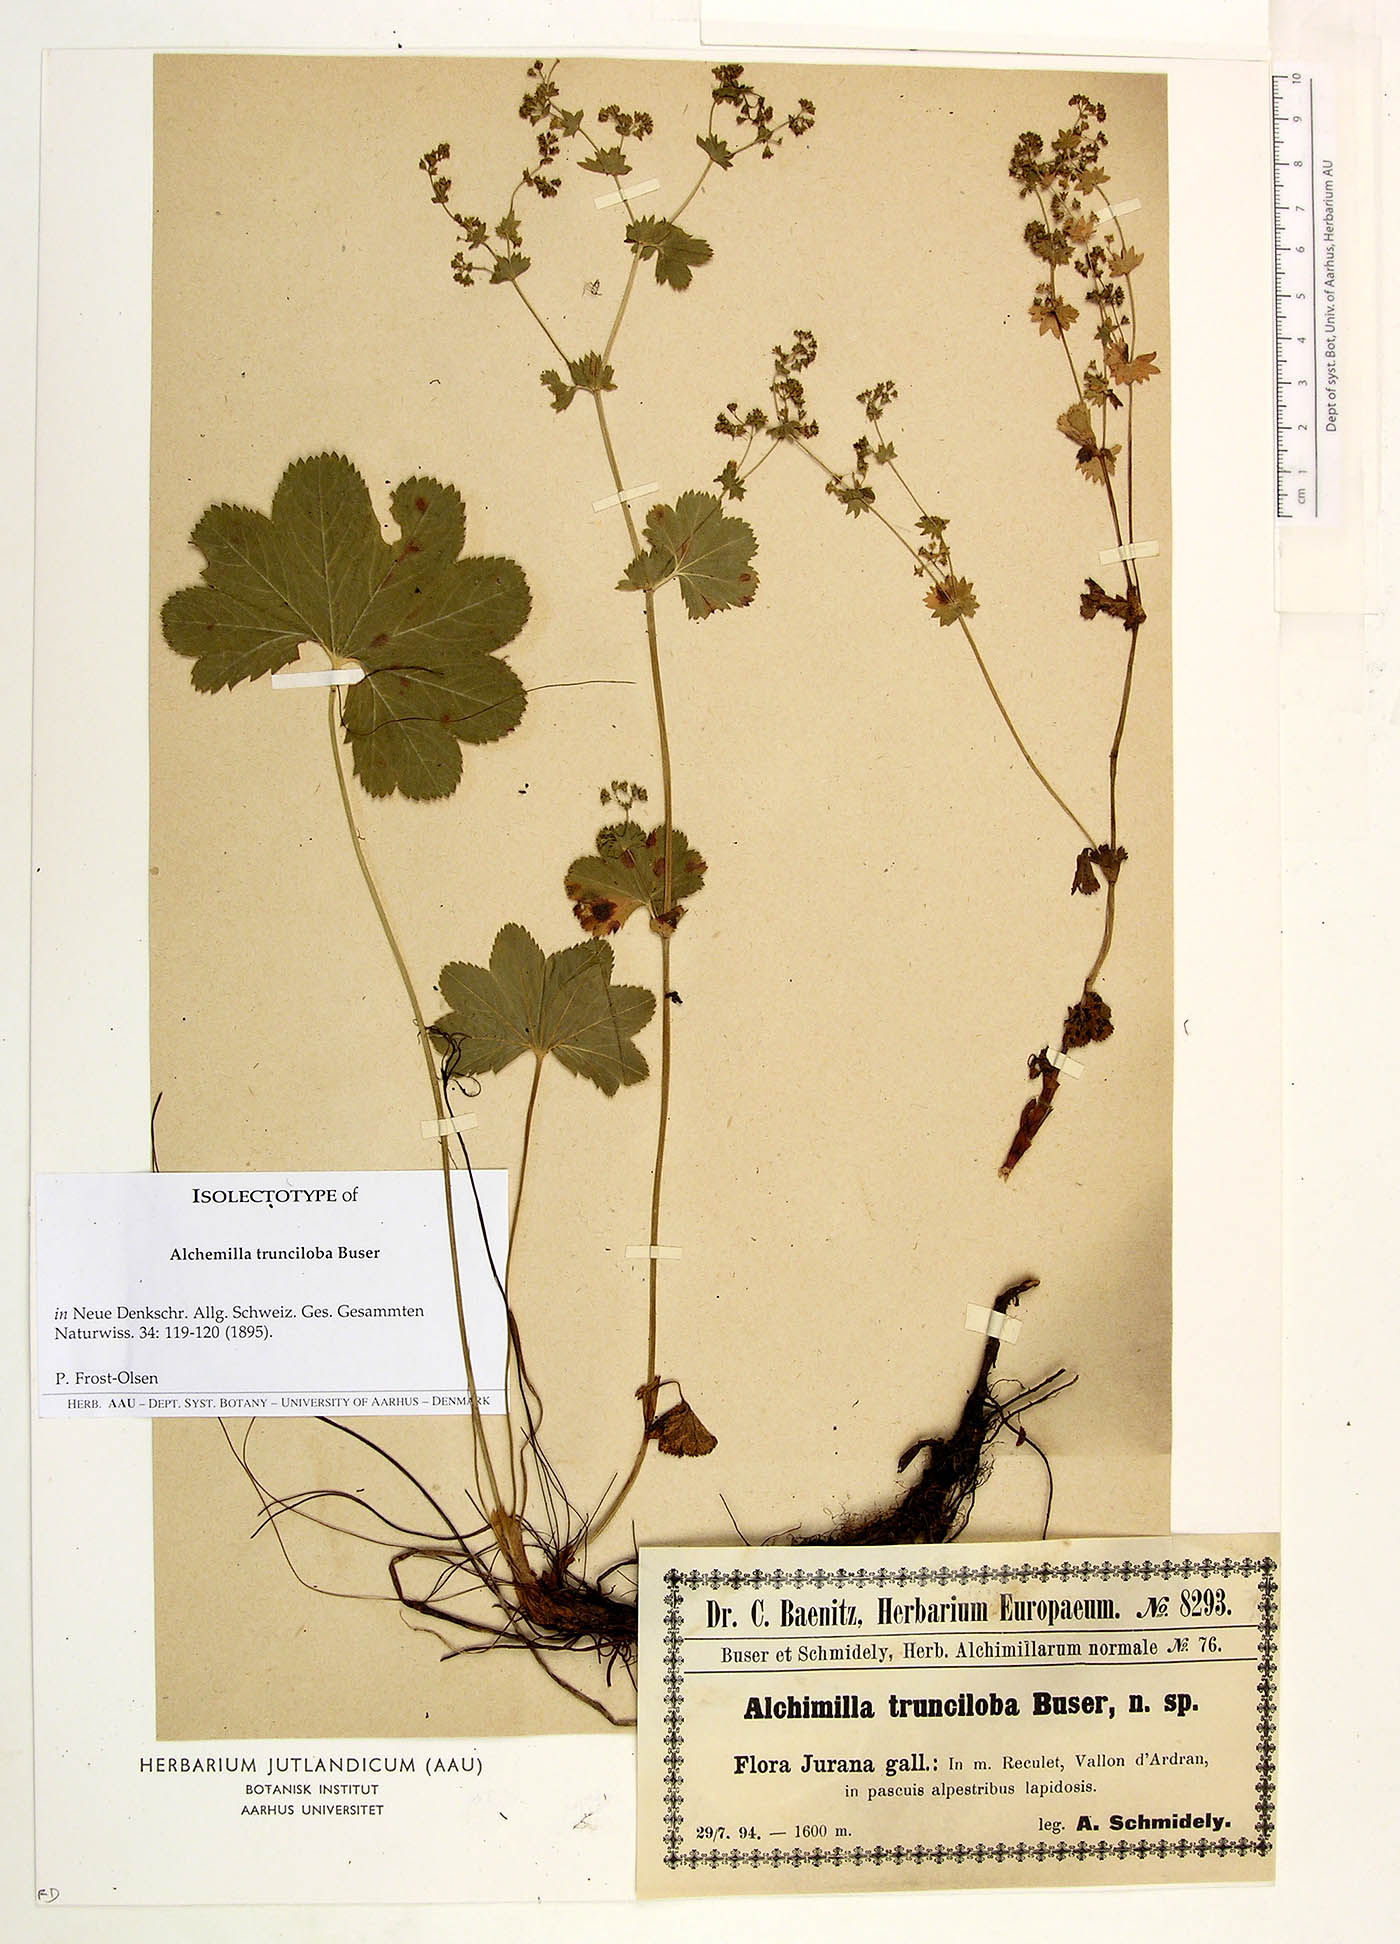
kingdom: Plantae
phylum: Tracheophyta
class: Magnoliopsida
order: Rosales
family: Rosaceae
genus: Alchemilla
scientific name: Alchemilla trunciloba
